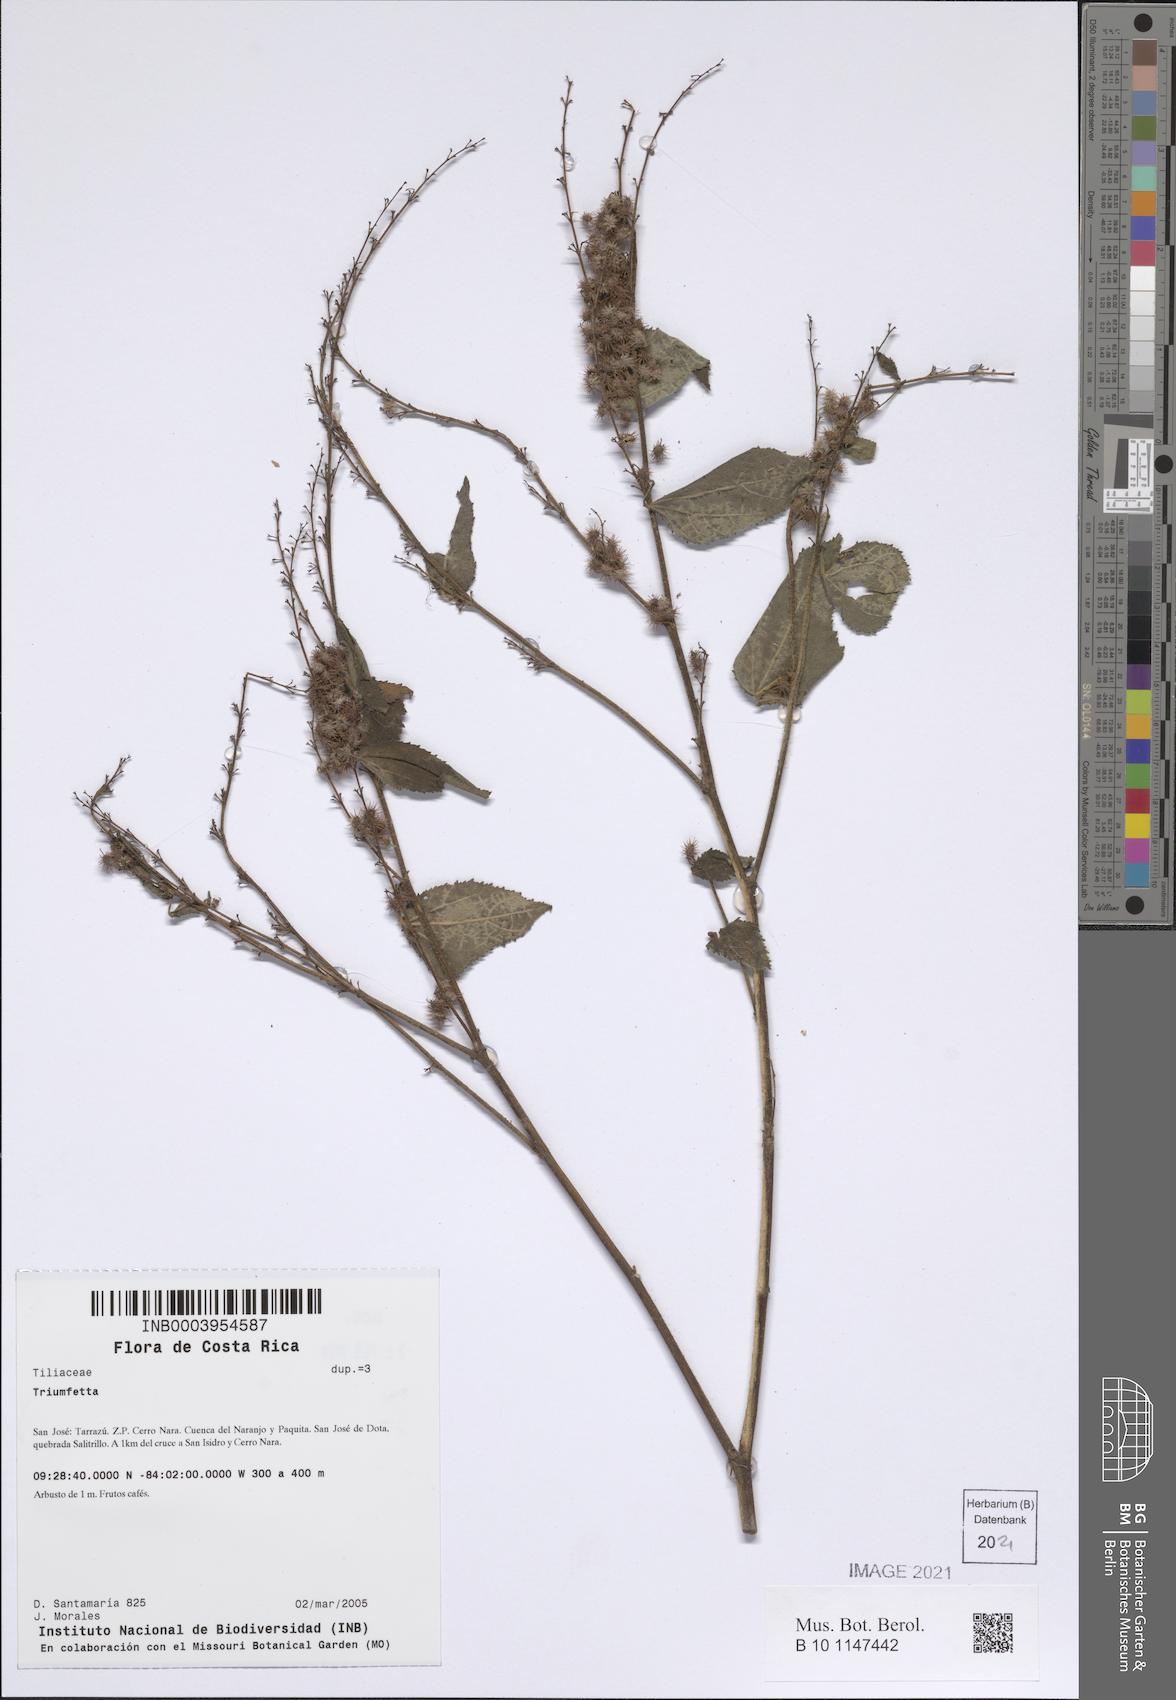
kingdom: Plantae
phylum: Tracheophyta
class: Magnoliopsida
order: Malvales
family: Malvaceae
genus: Triumfetta
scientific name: Triumfetta
